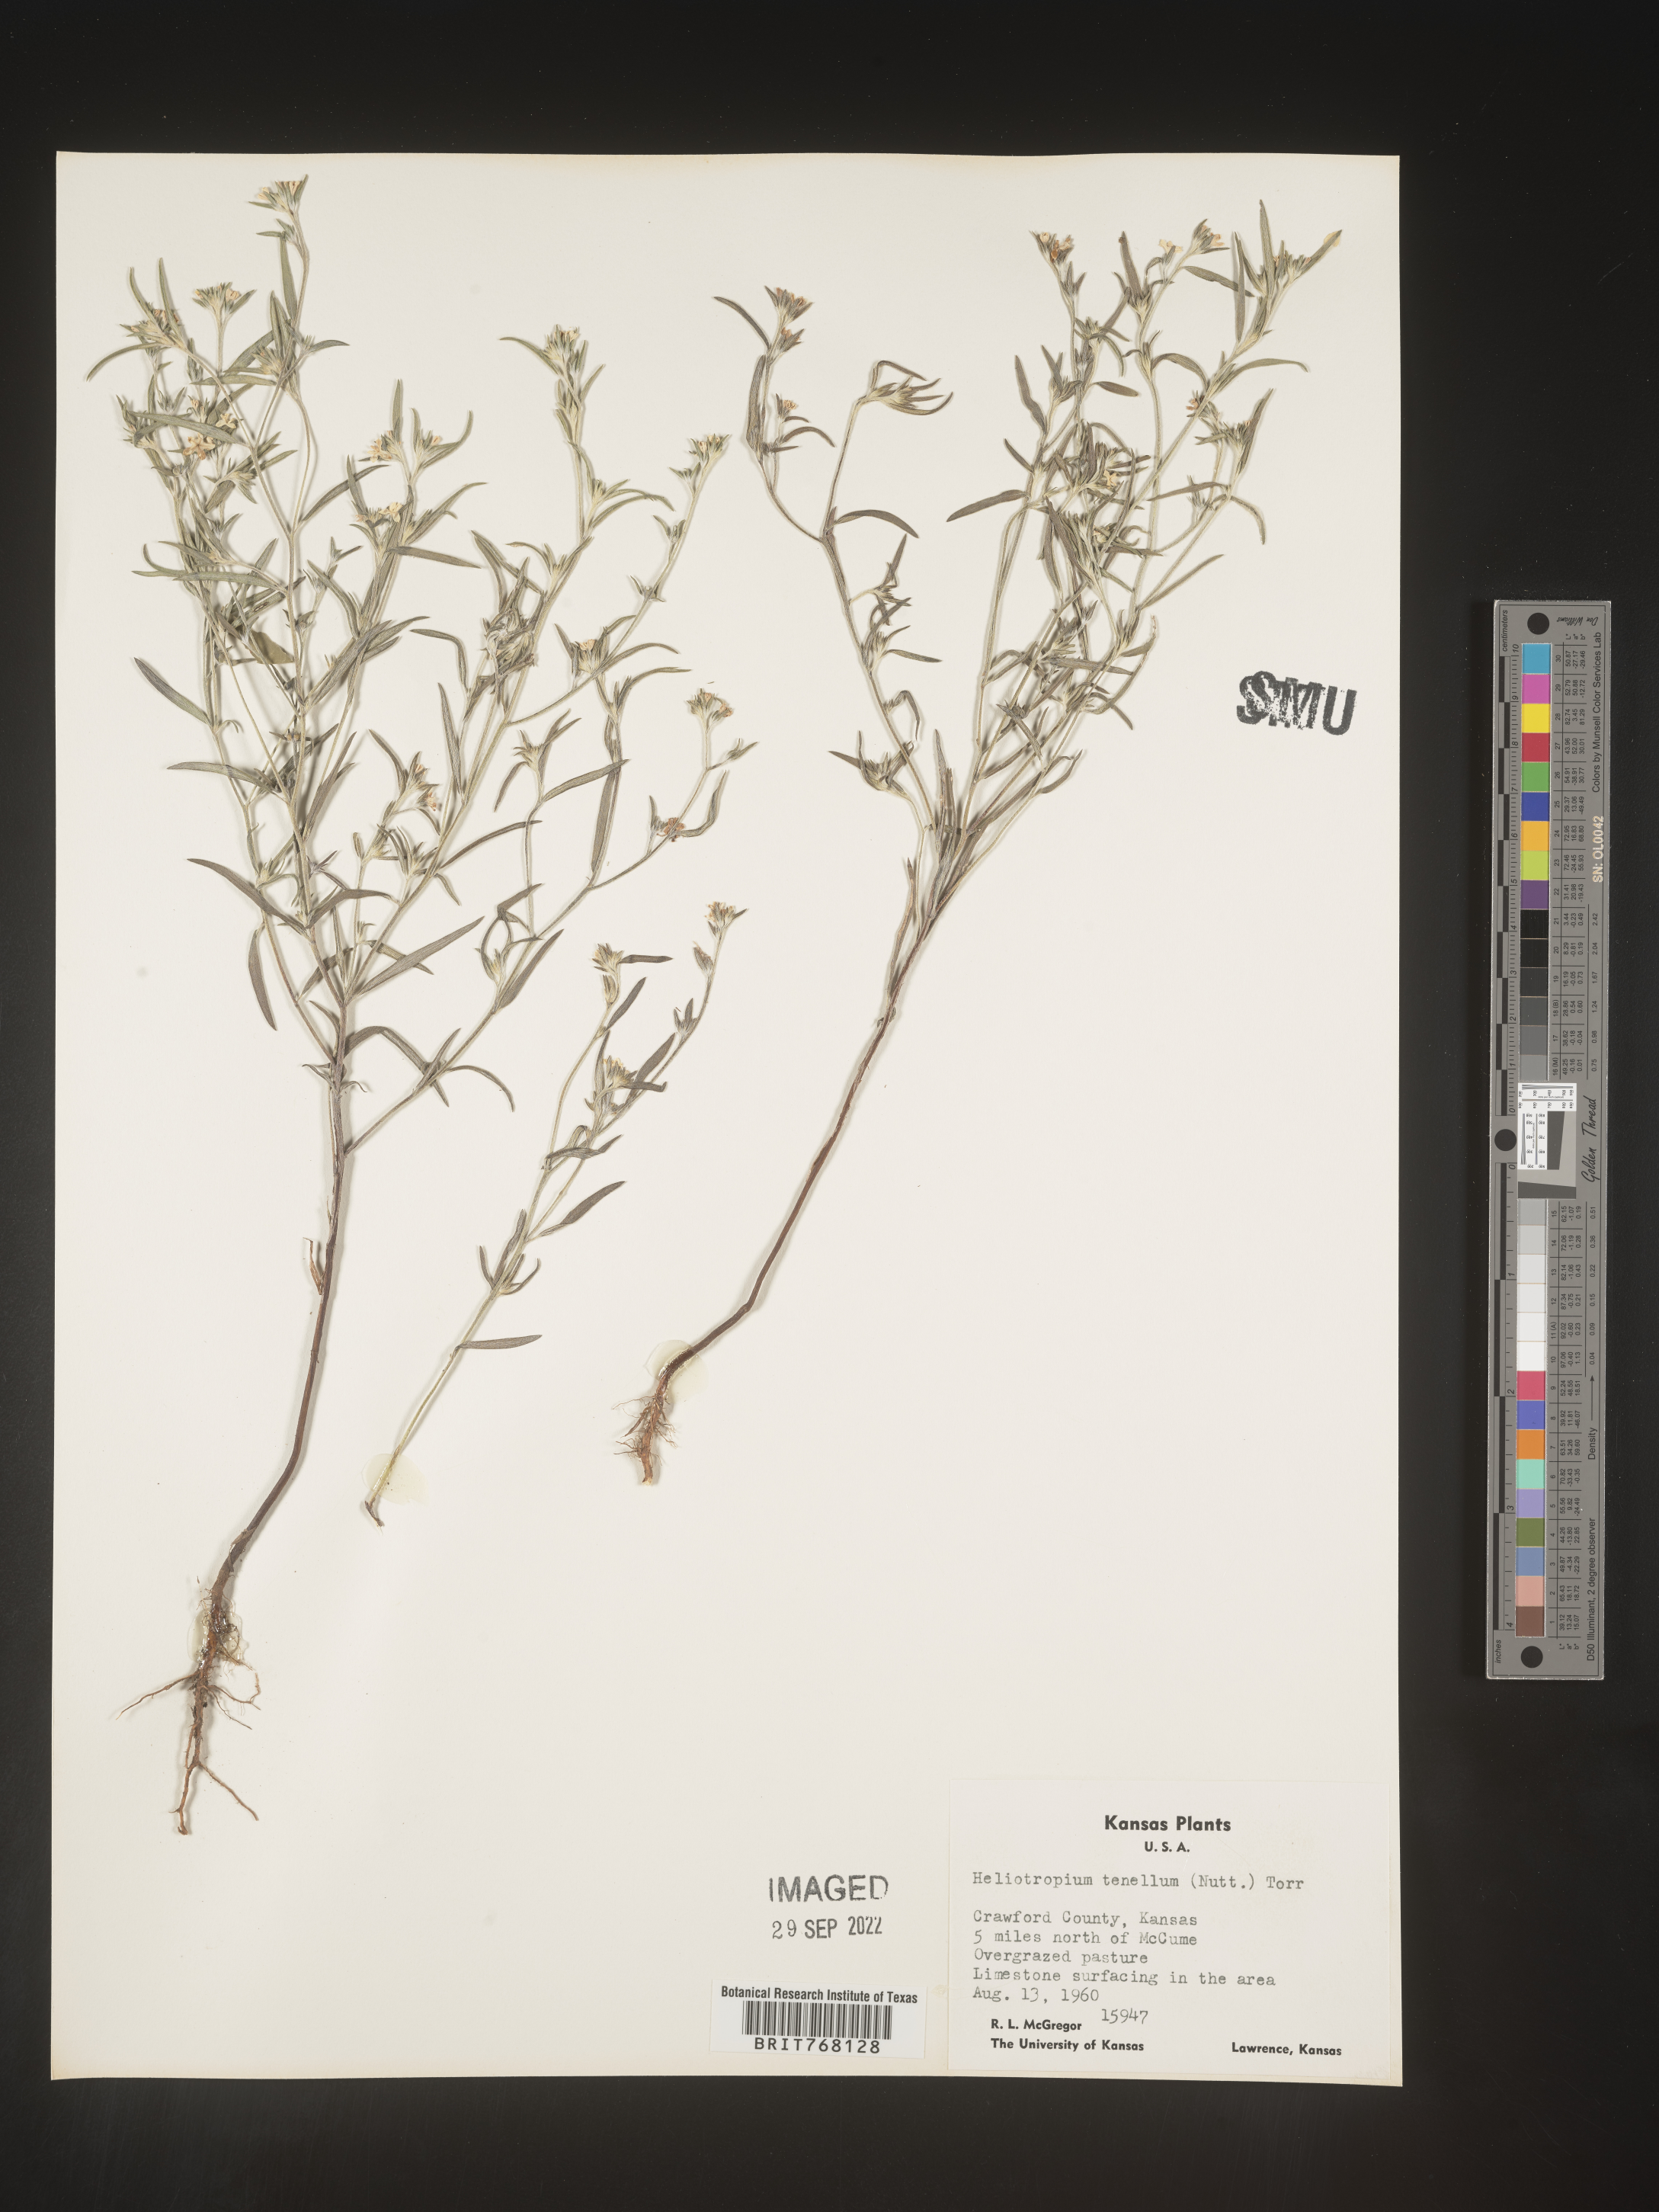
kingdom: Plantae
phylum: Tracheophyta
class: Magnoliopsida
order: Boraginales
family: Heliotropiaceae
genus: Euploca
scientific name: Euploca tenella
